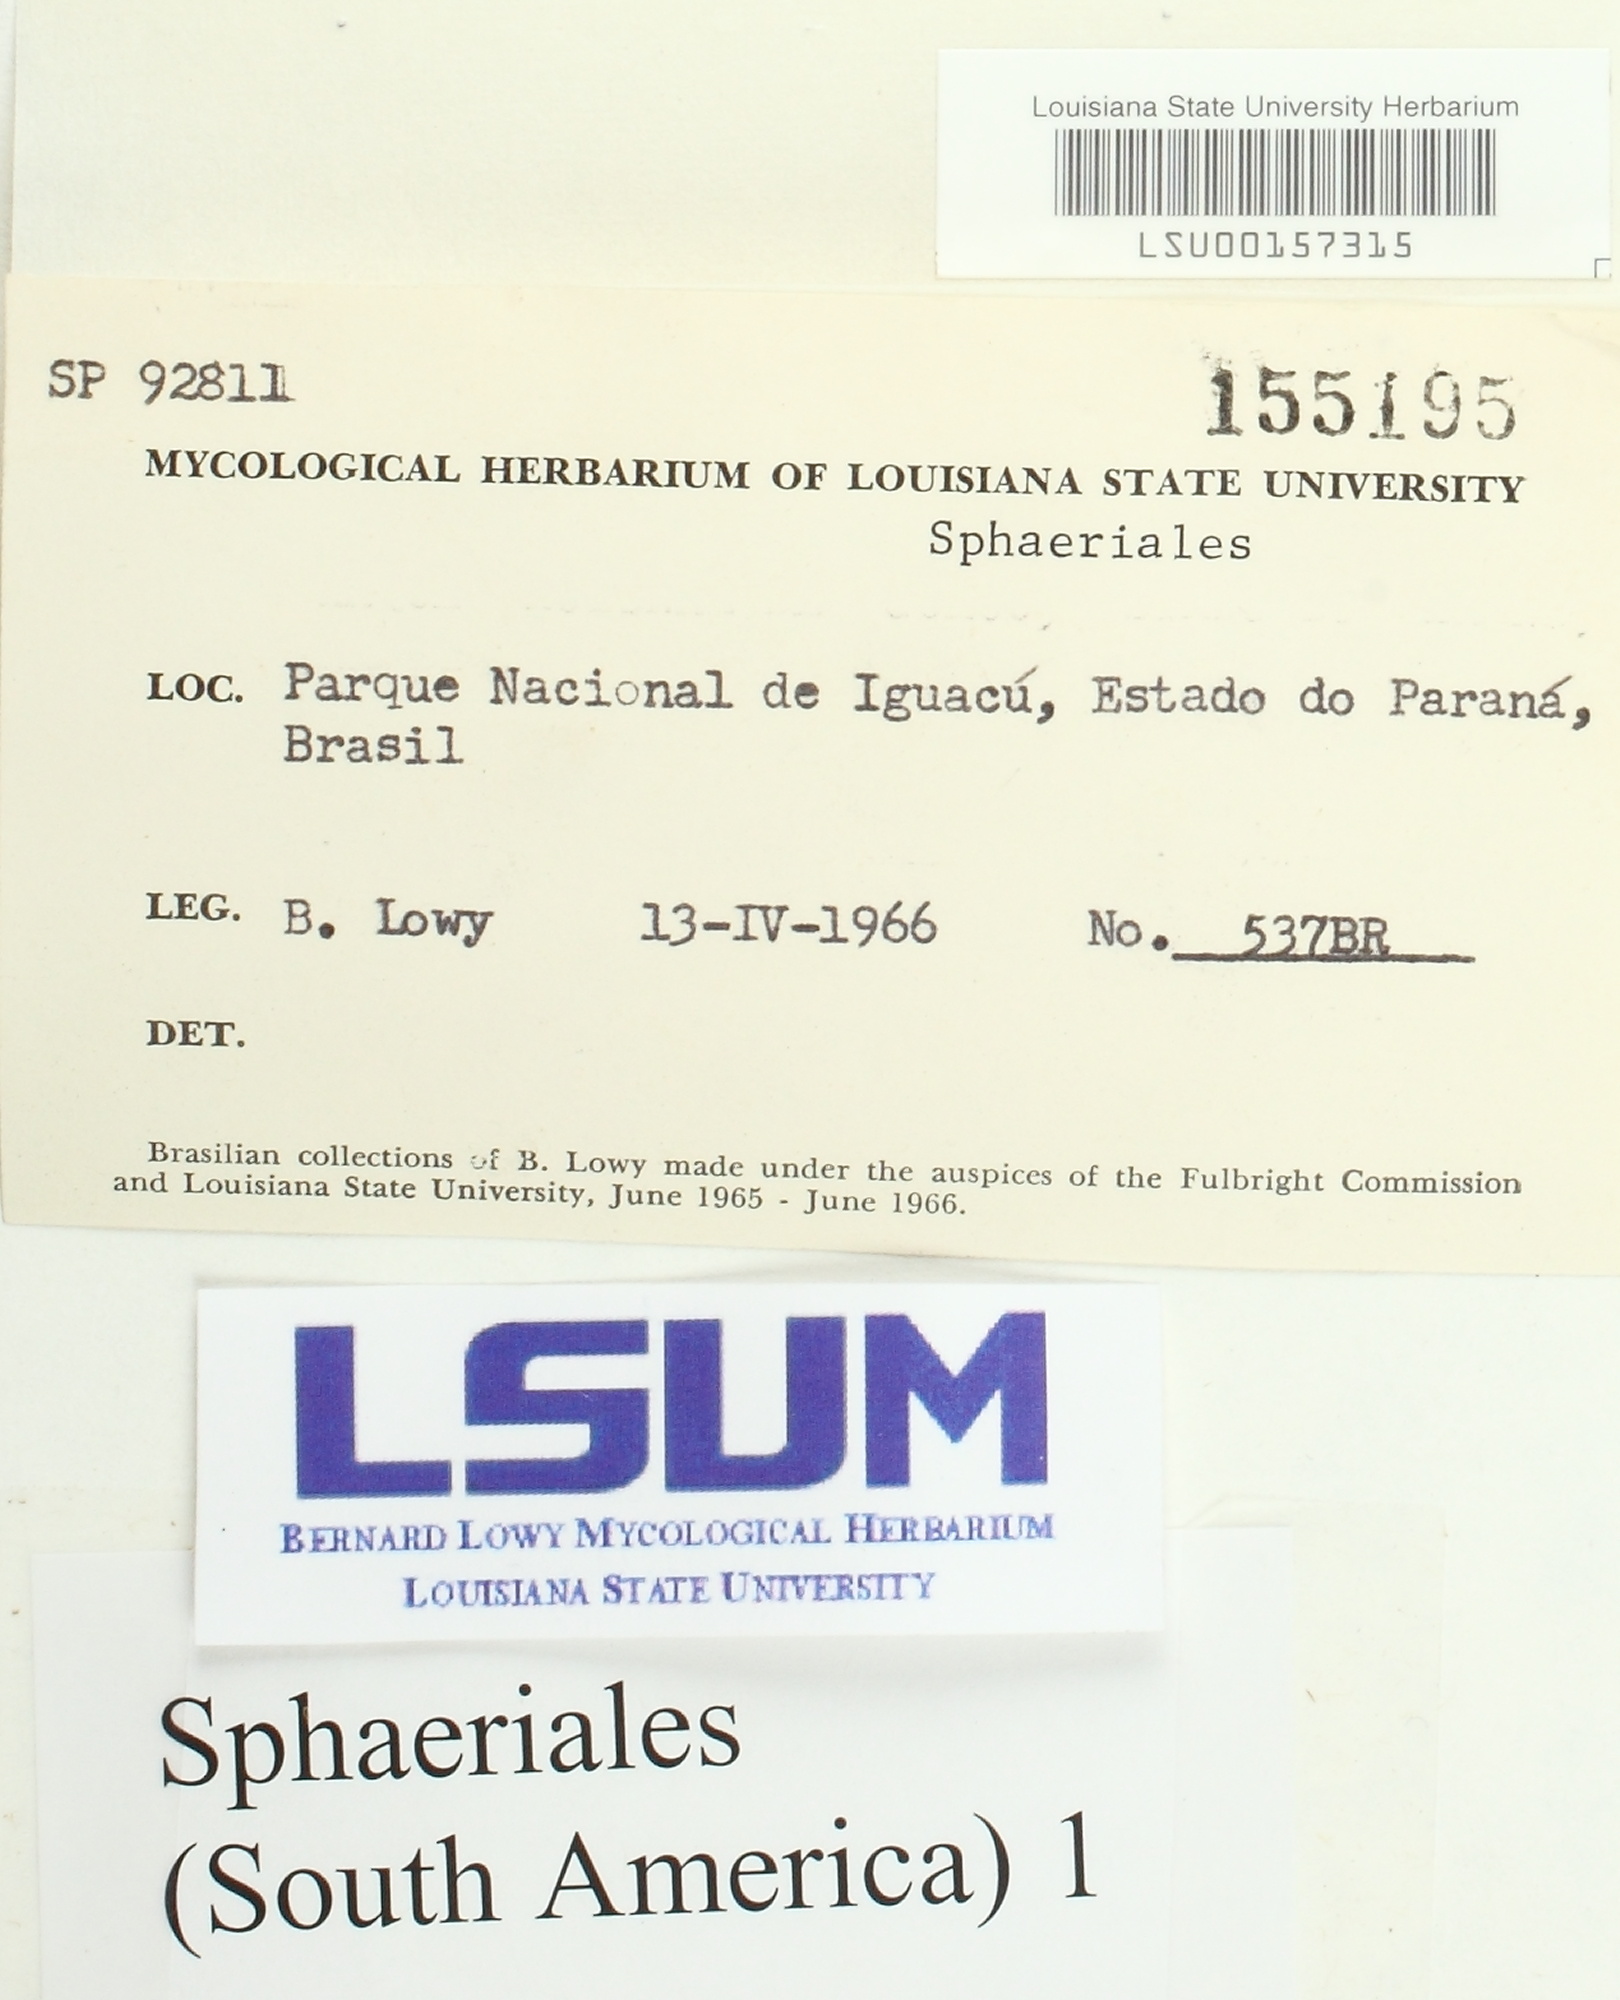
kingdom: Fungi
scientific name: Fungi
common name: Fungi
